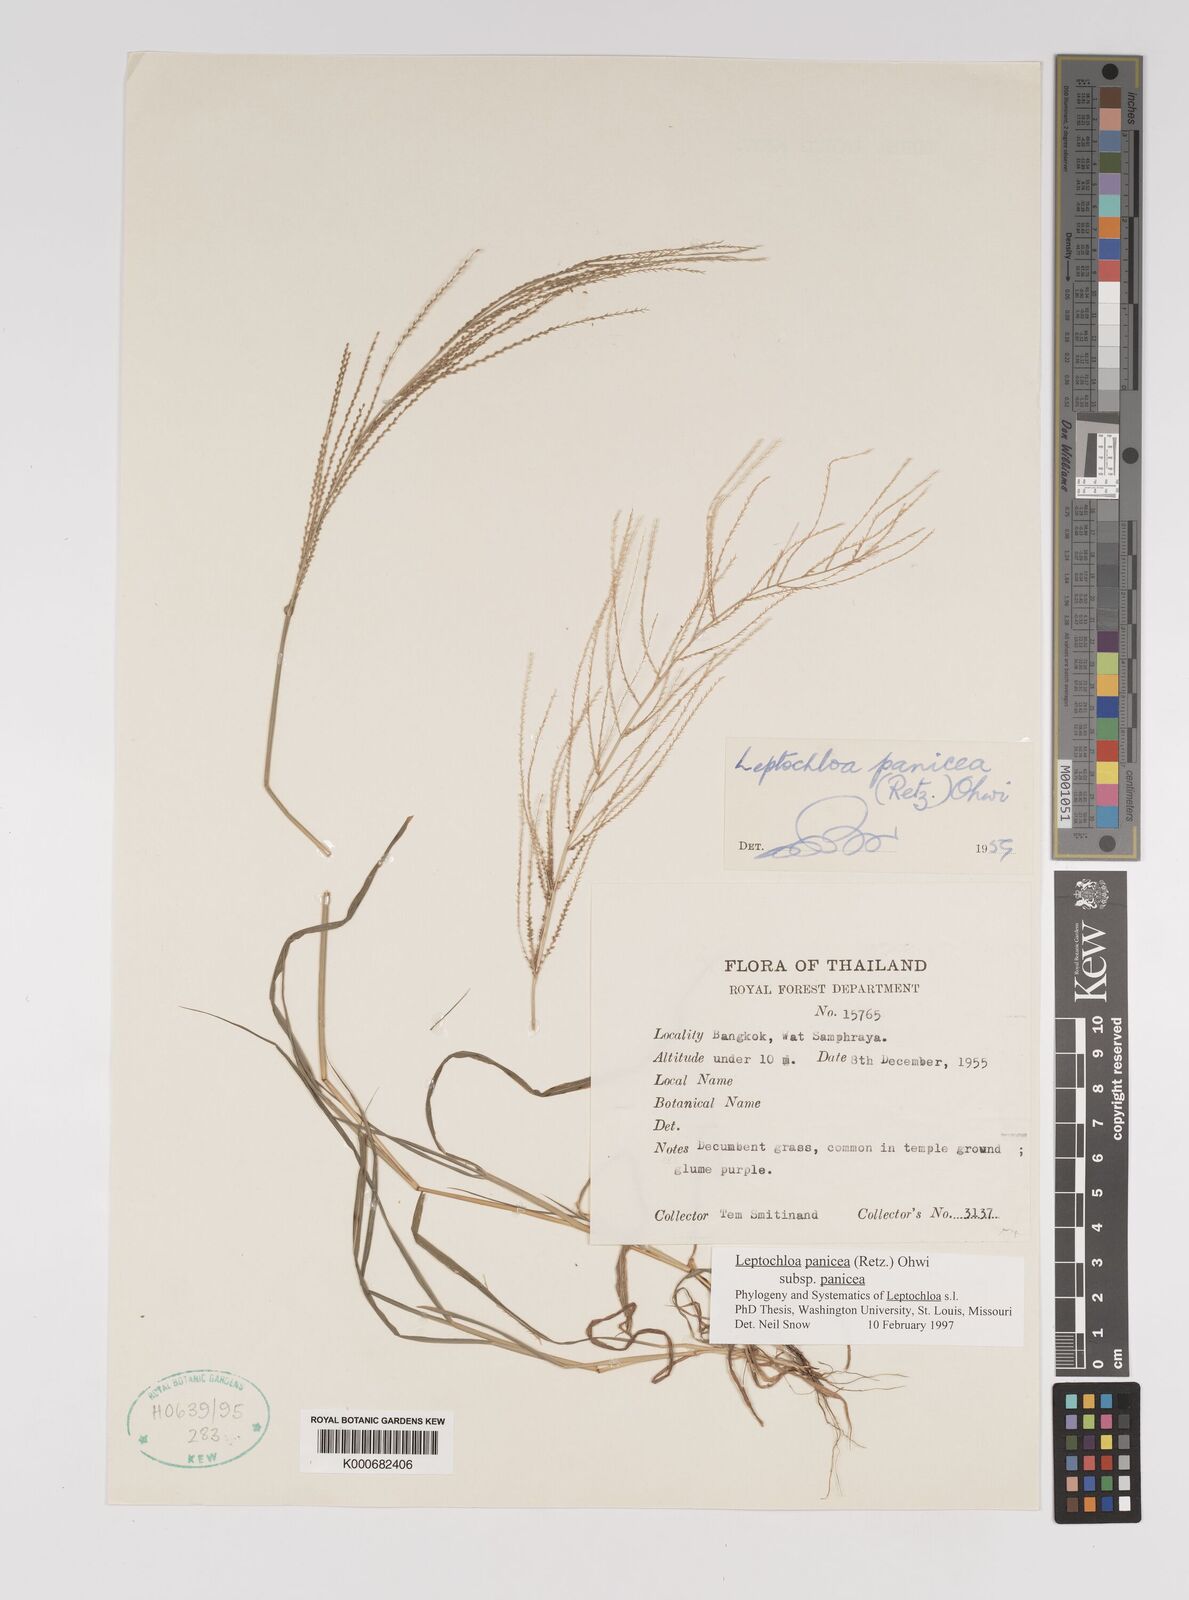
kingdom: Plantae
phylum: Tracheophyta
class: Liliopsida
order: Poales
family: Poaceae
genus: Leptochloa
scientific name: Leptochloa panicea
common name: Mucronate sprangletop
